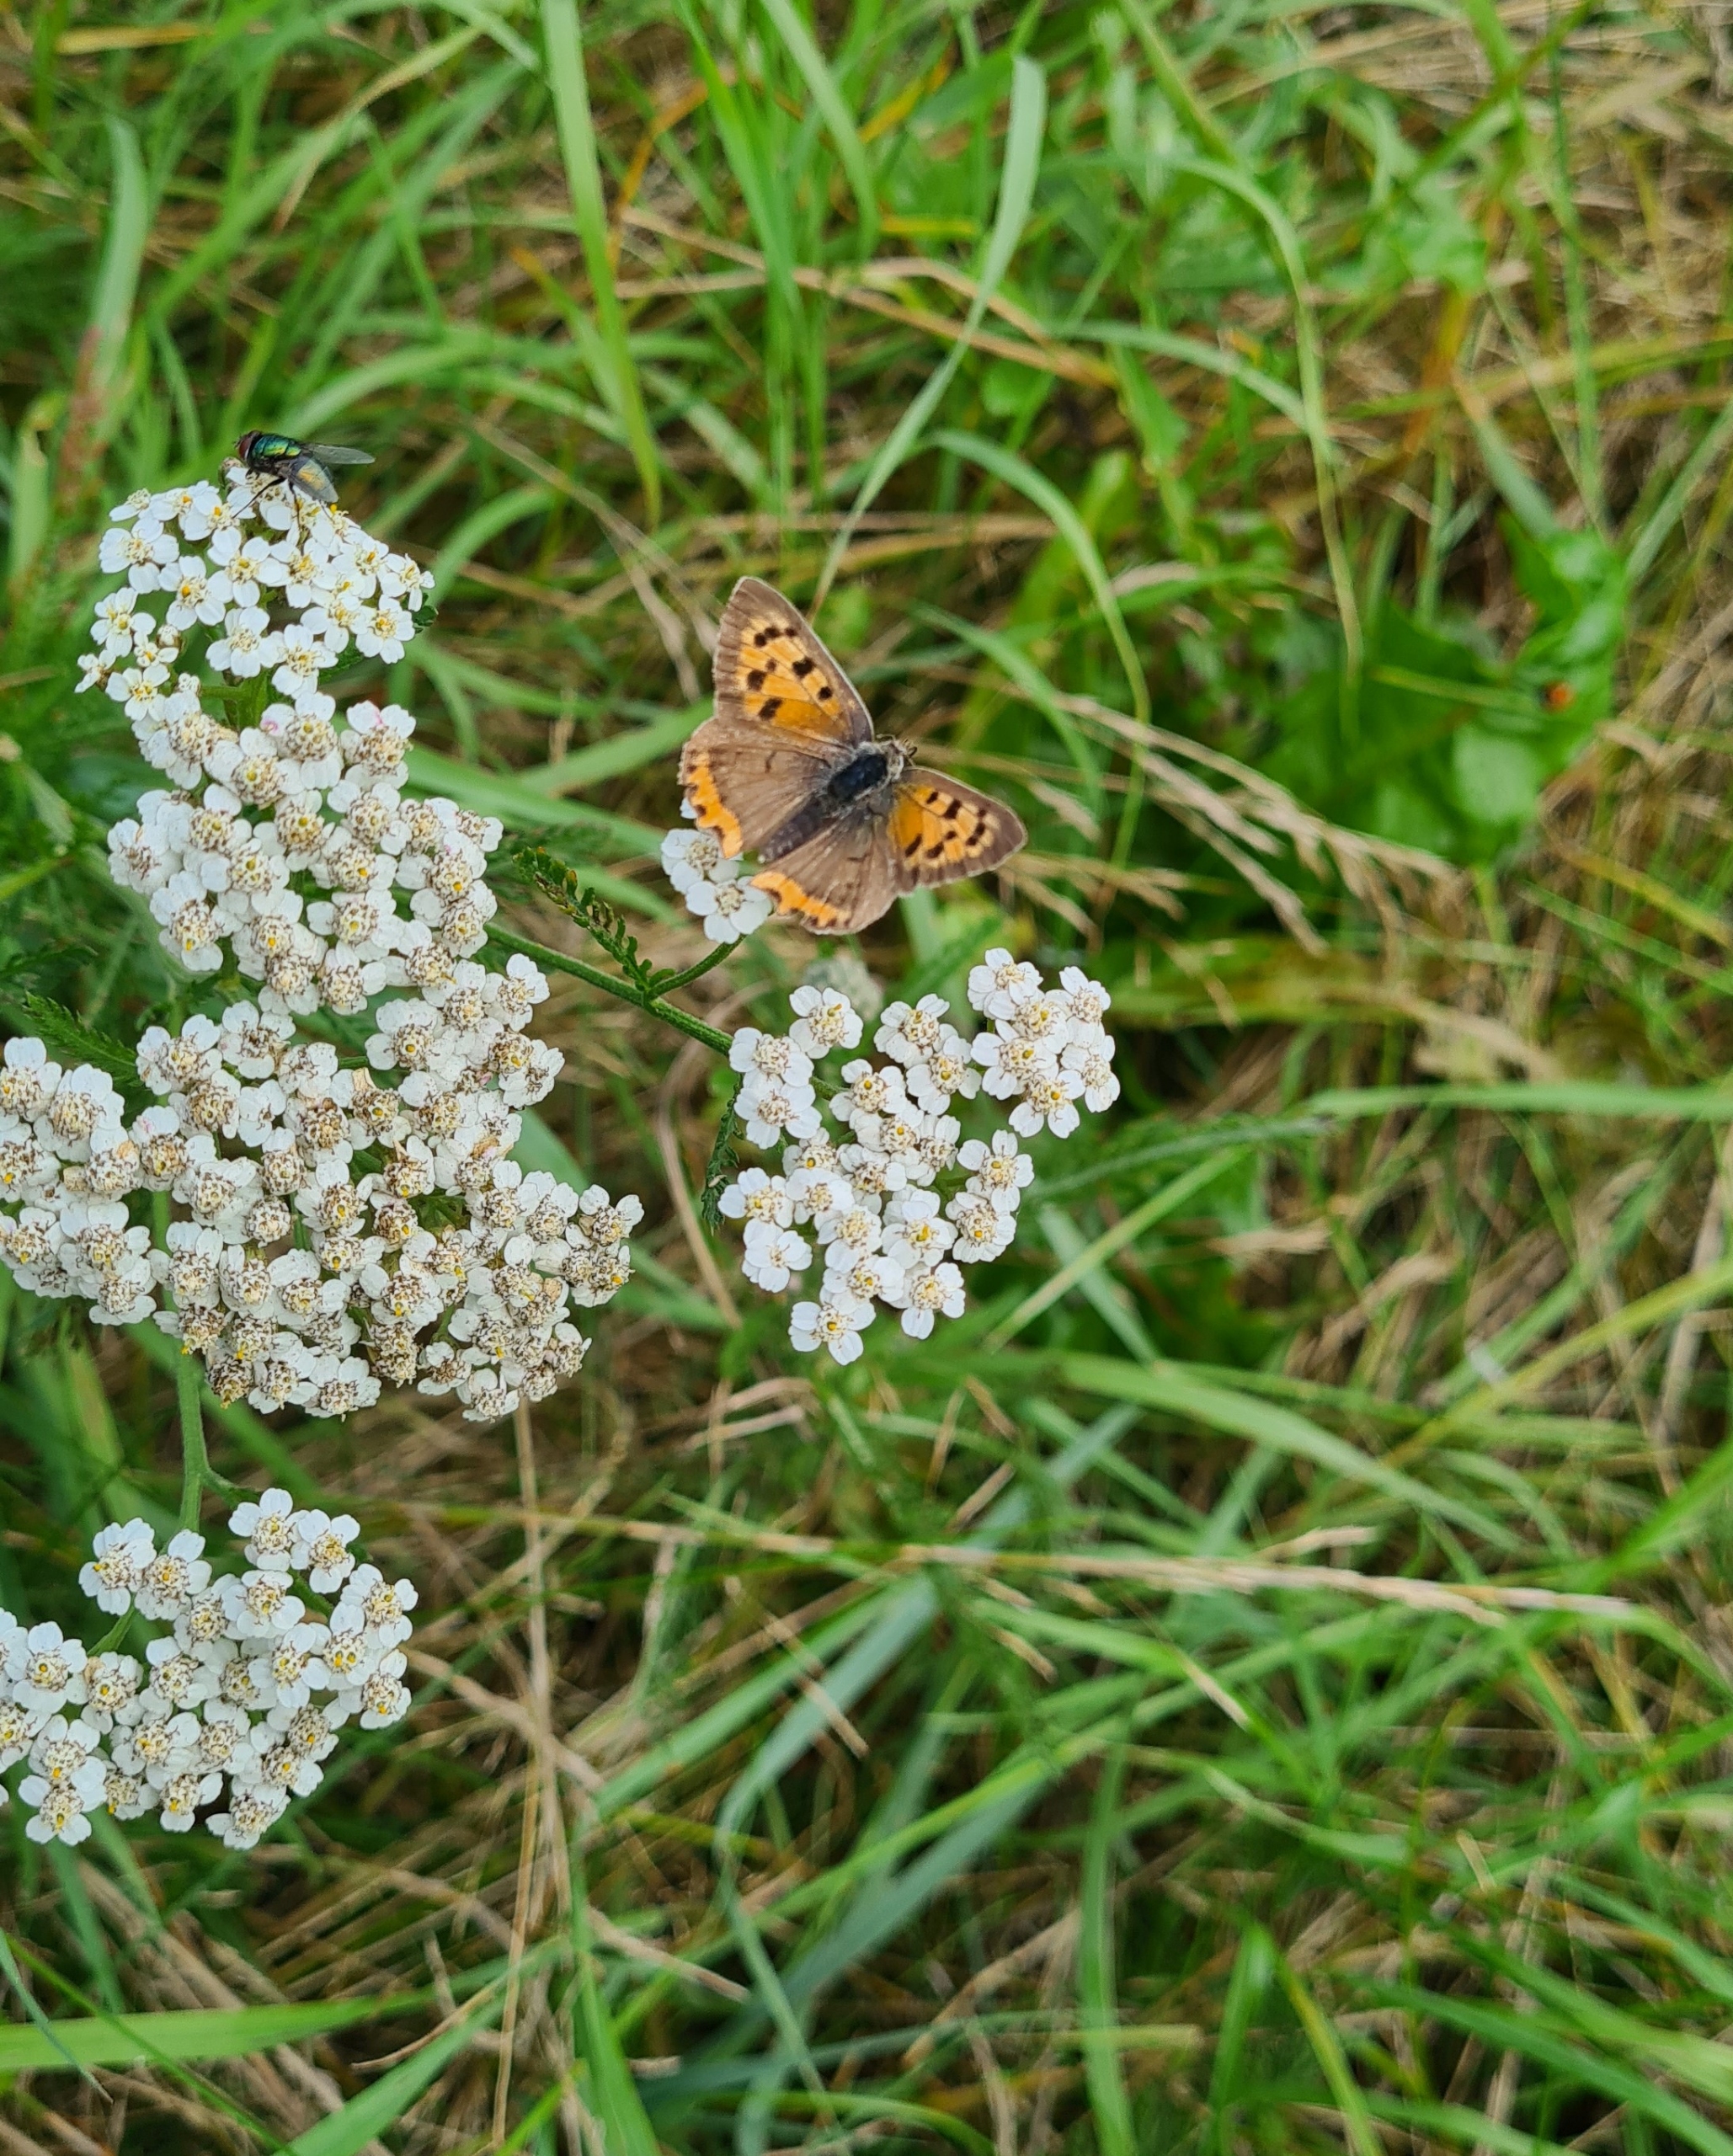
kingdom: Animalia
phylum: Arthropoda
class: Insecta
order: Lepidoptera
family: Lycaenidae
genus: Lycaena
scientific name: Lycaena phlaeas
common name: Lille ildfugl
